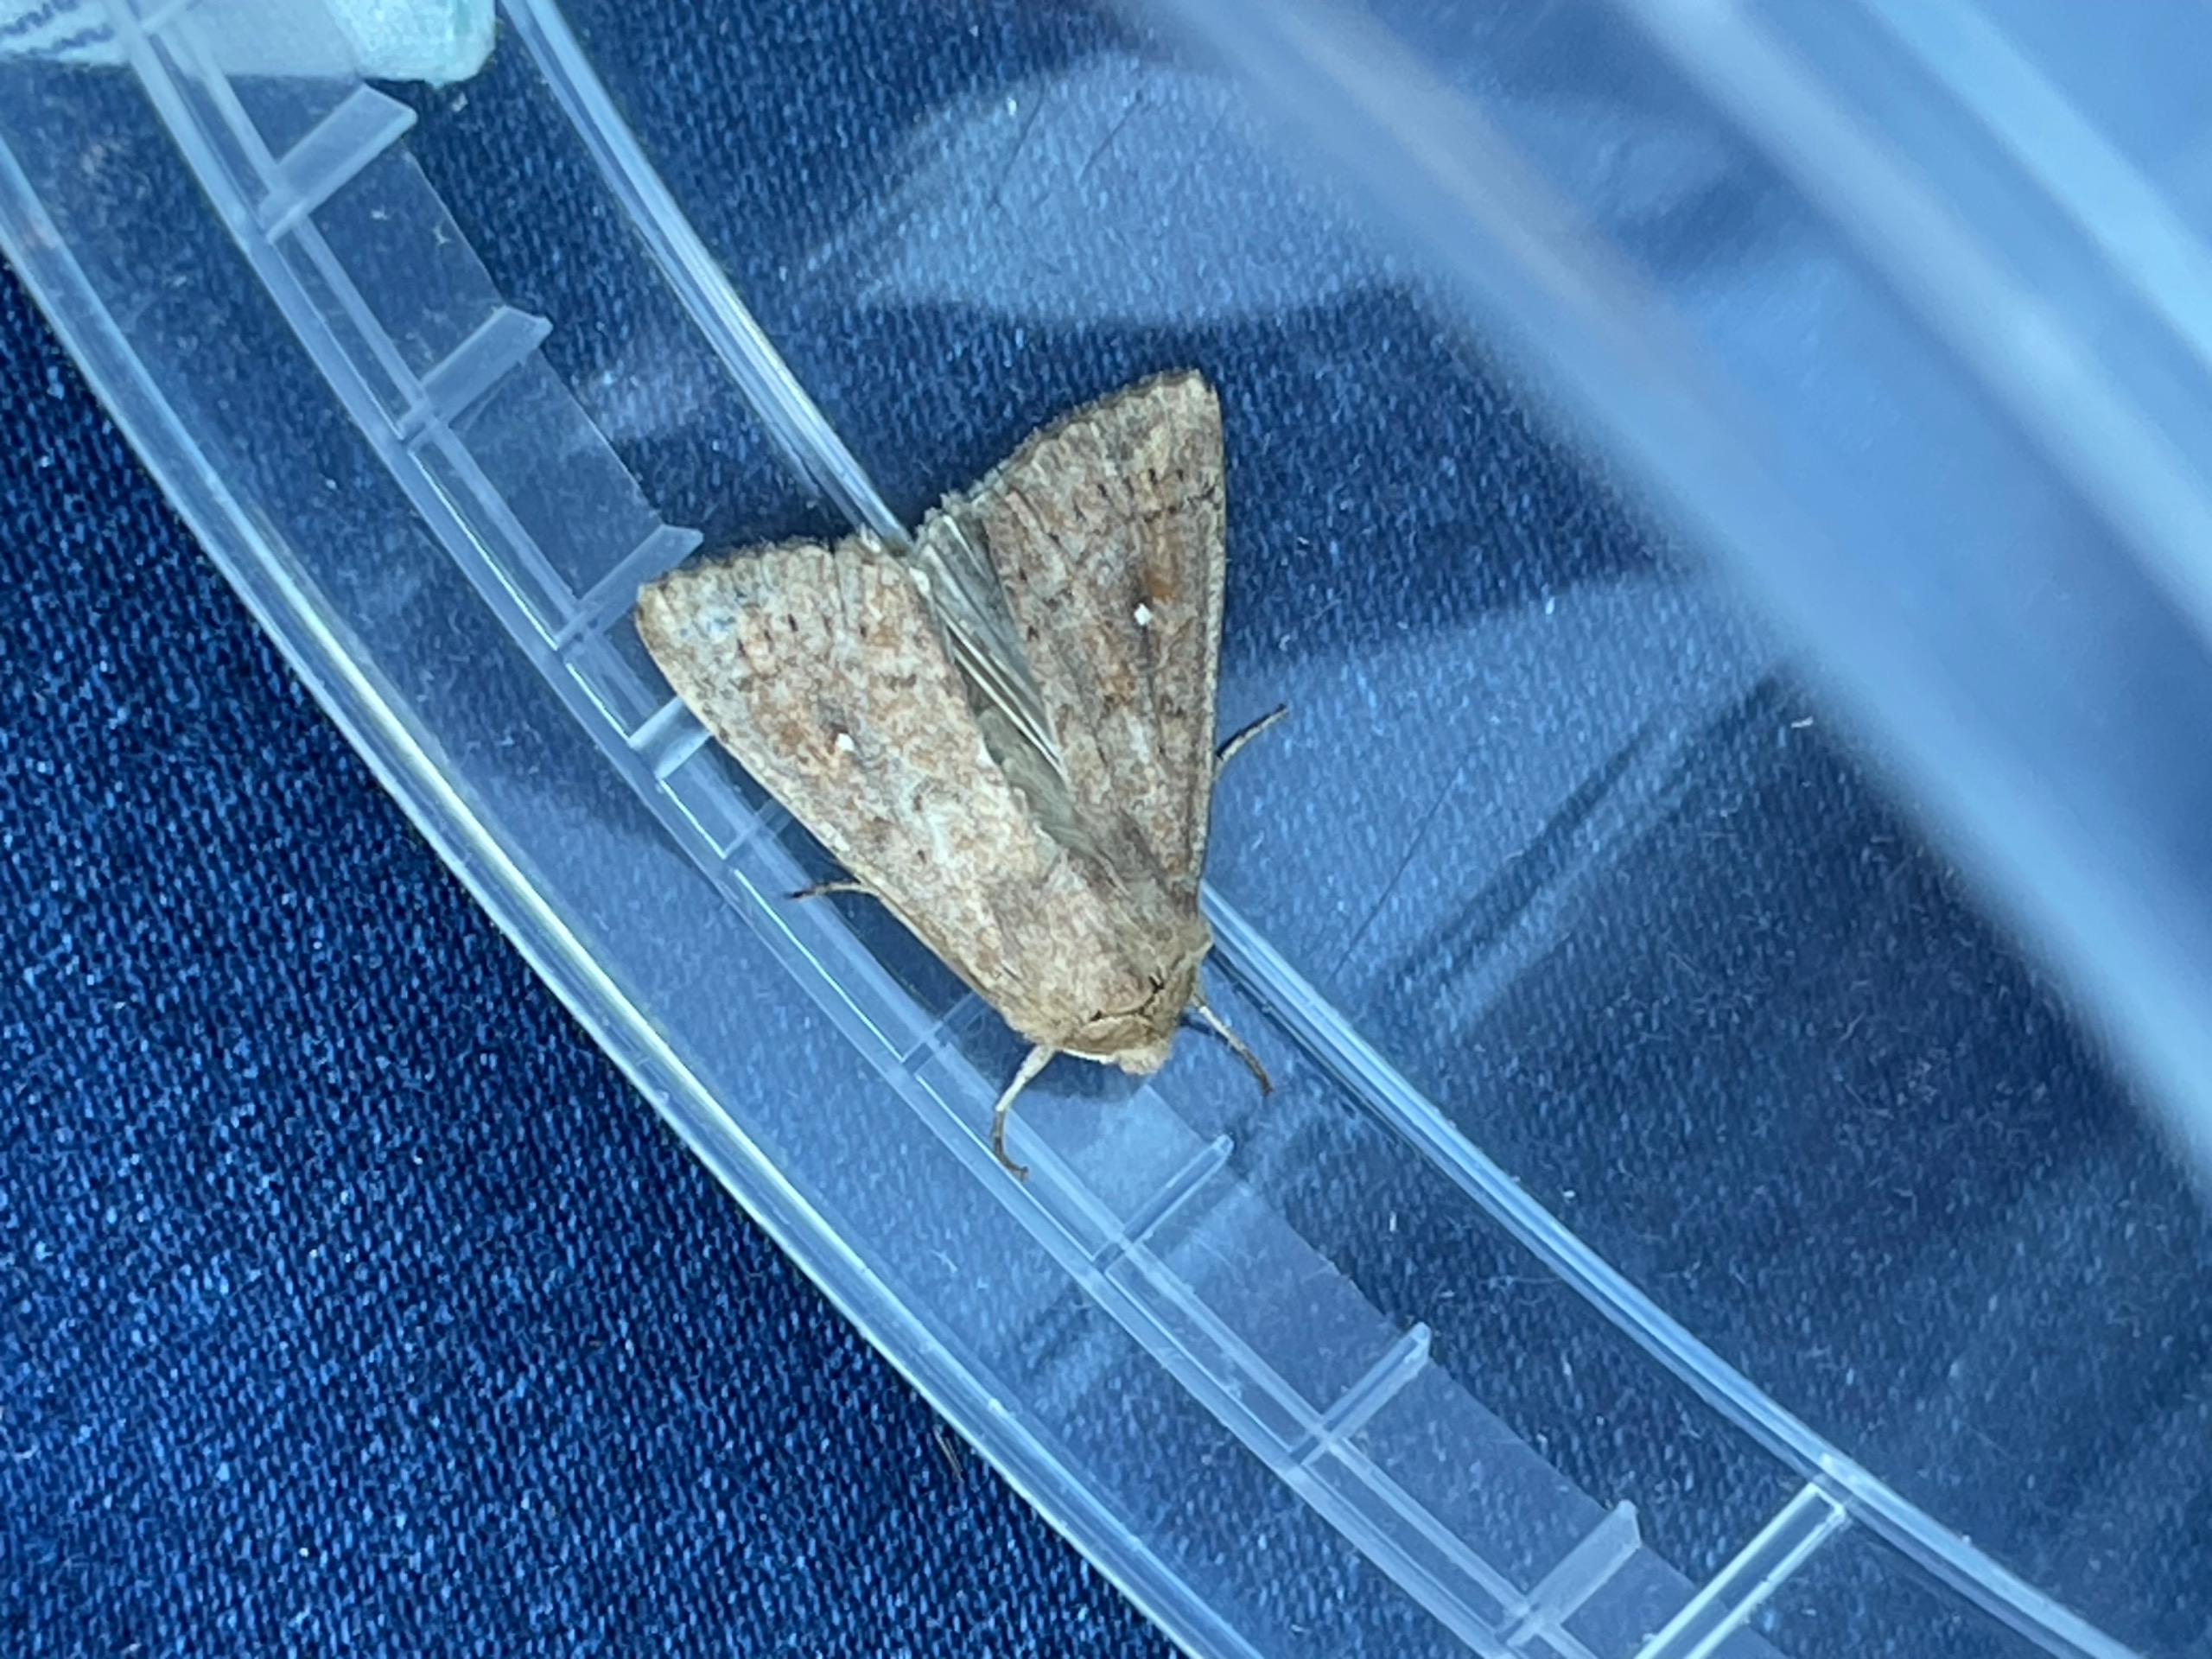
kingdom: Animalia
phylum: Arthropoda
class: Insecta
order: Lepidoptera
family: Noctuidae
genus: Mythimna
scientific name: Mythimna albipuncta
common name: Hvid-punkt græsugle
